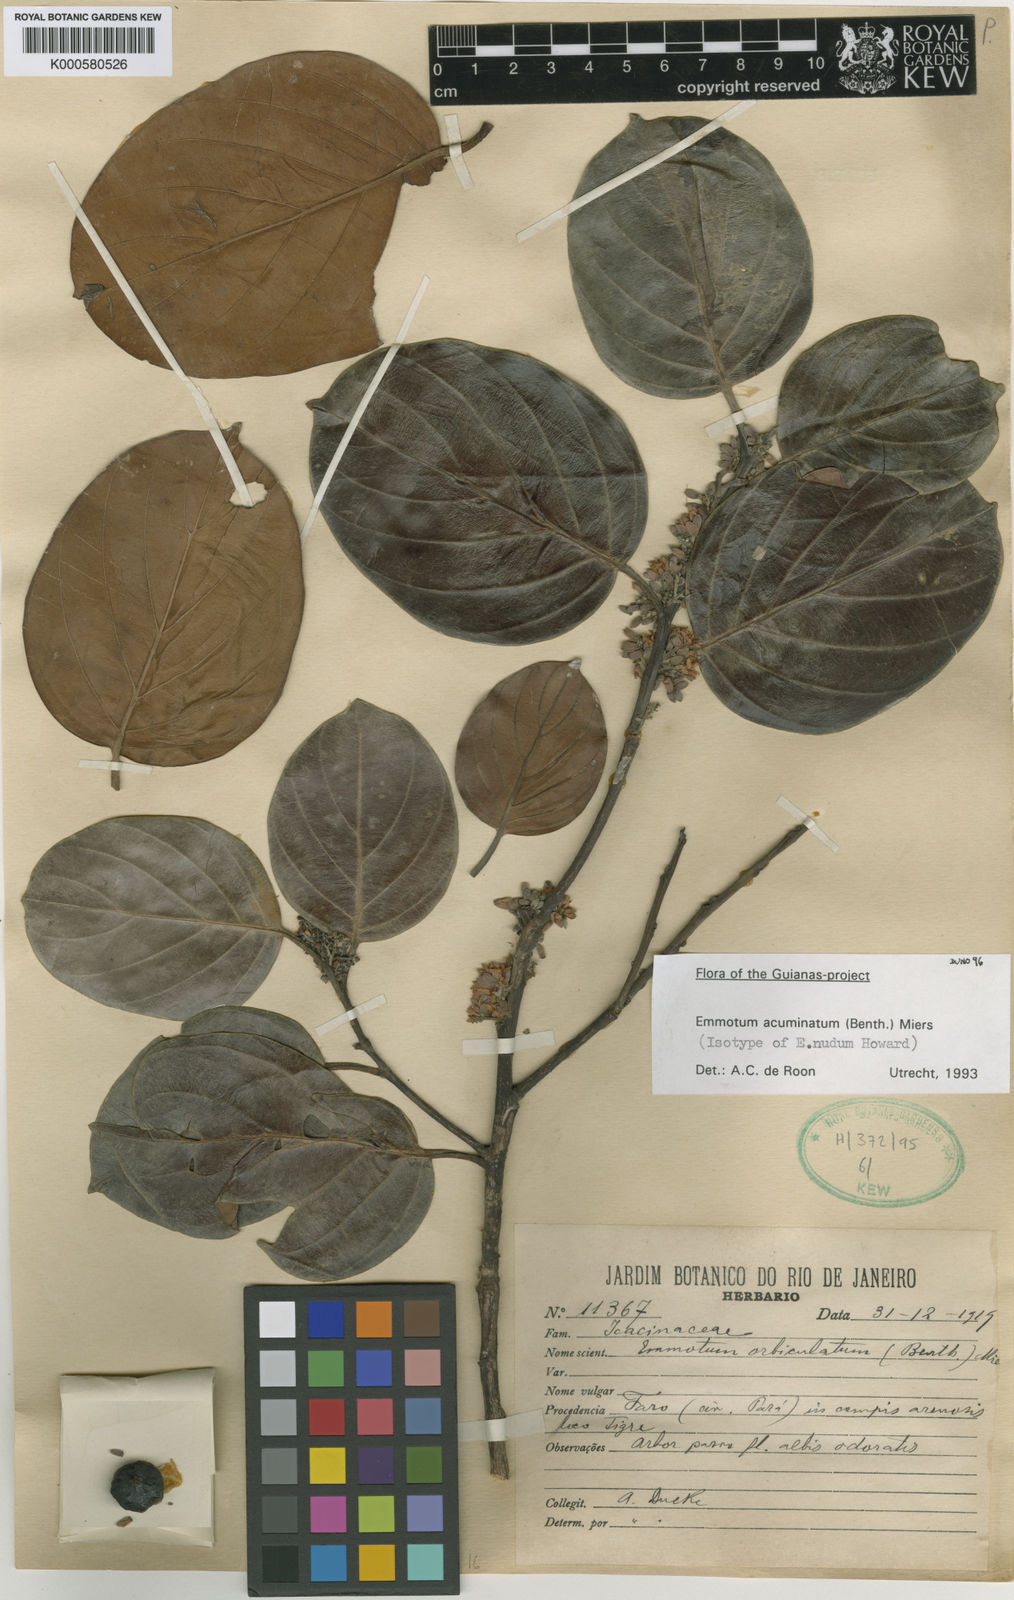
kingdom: Plantae
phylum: Tracheophyta
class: Magnoliopsida
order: Metteniusales
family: Metteniusaceae
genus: Emmotum
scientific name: Emmotum acuminatum
